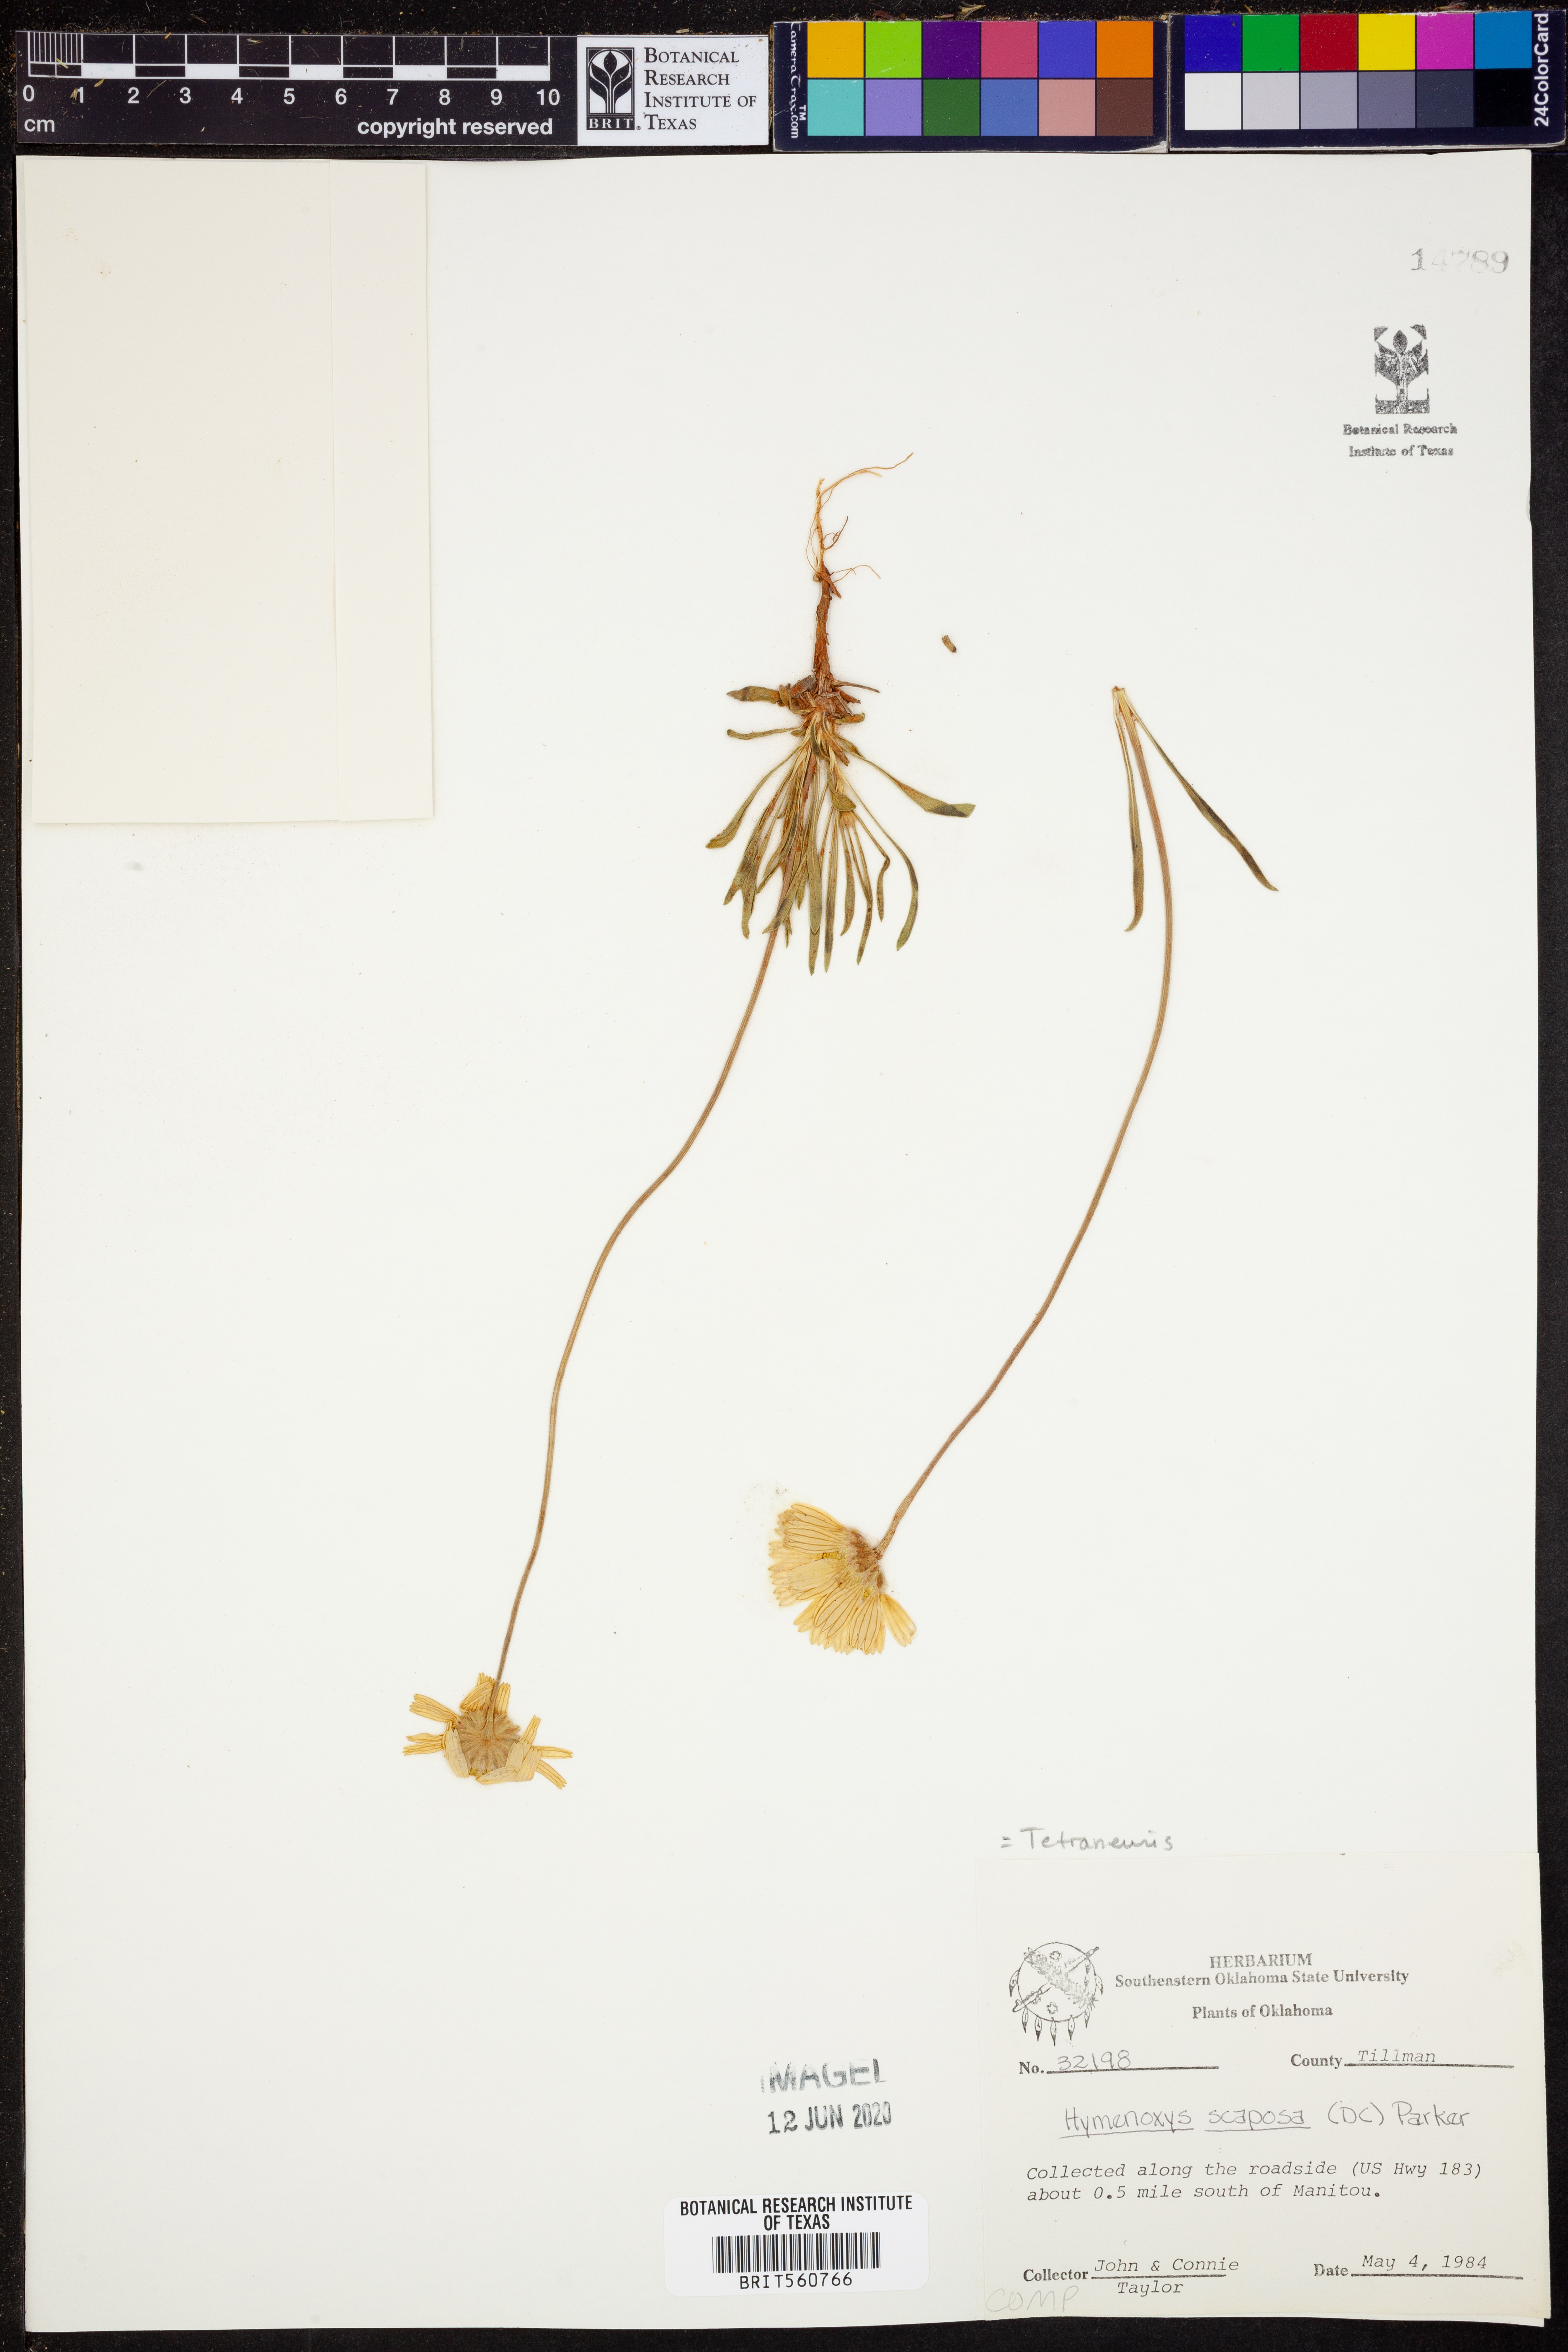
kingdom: Plantae
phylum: Tracheophyta
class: Magnoliopsida
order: Asterales
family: Asteraceae
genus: Tetraneuris
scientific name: Tetraneuris scaposa
